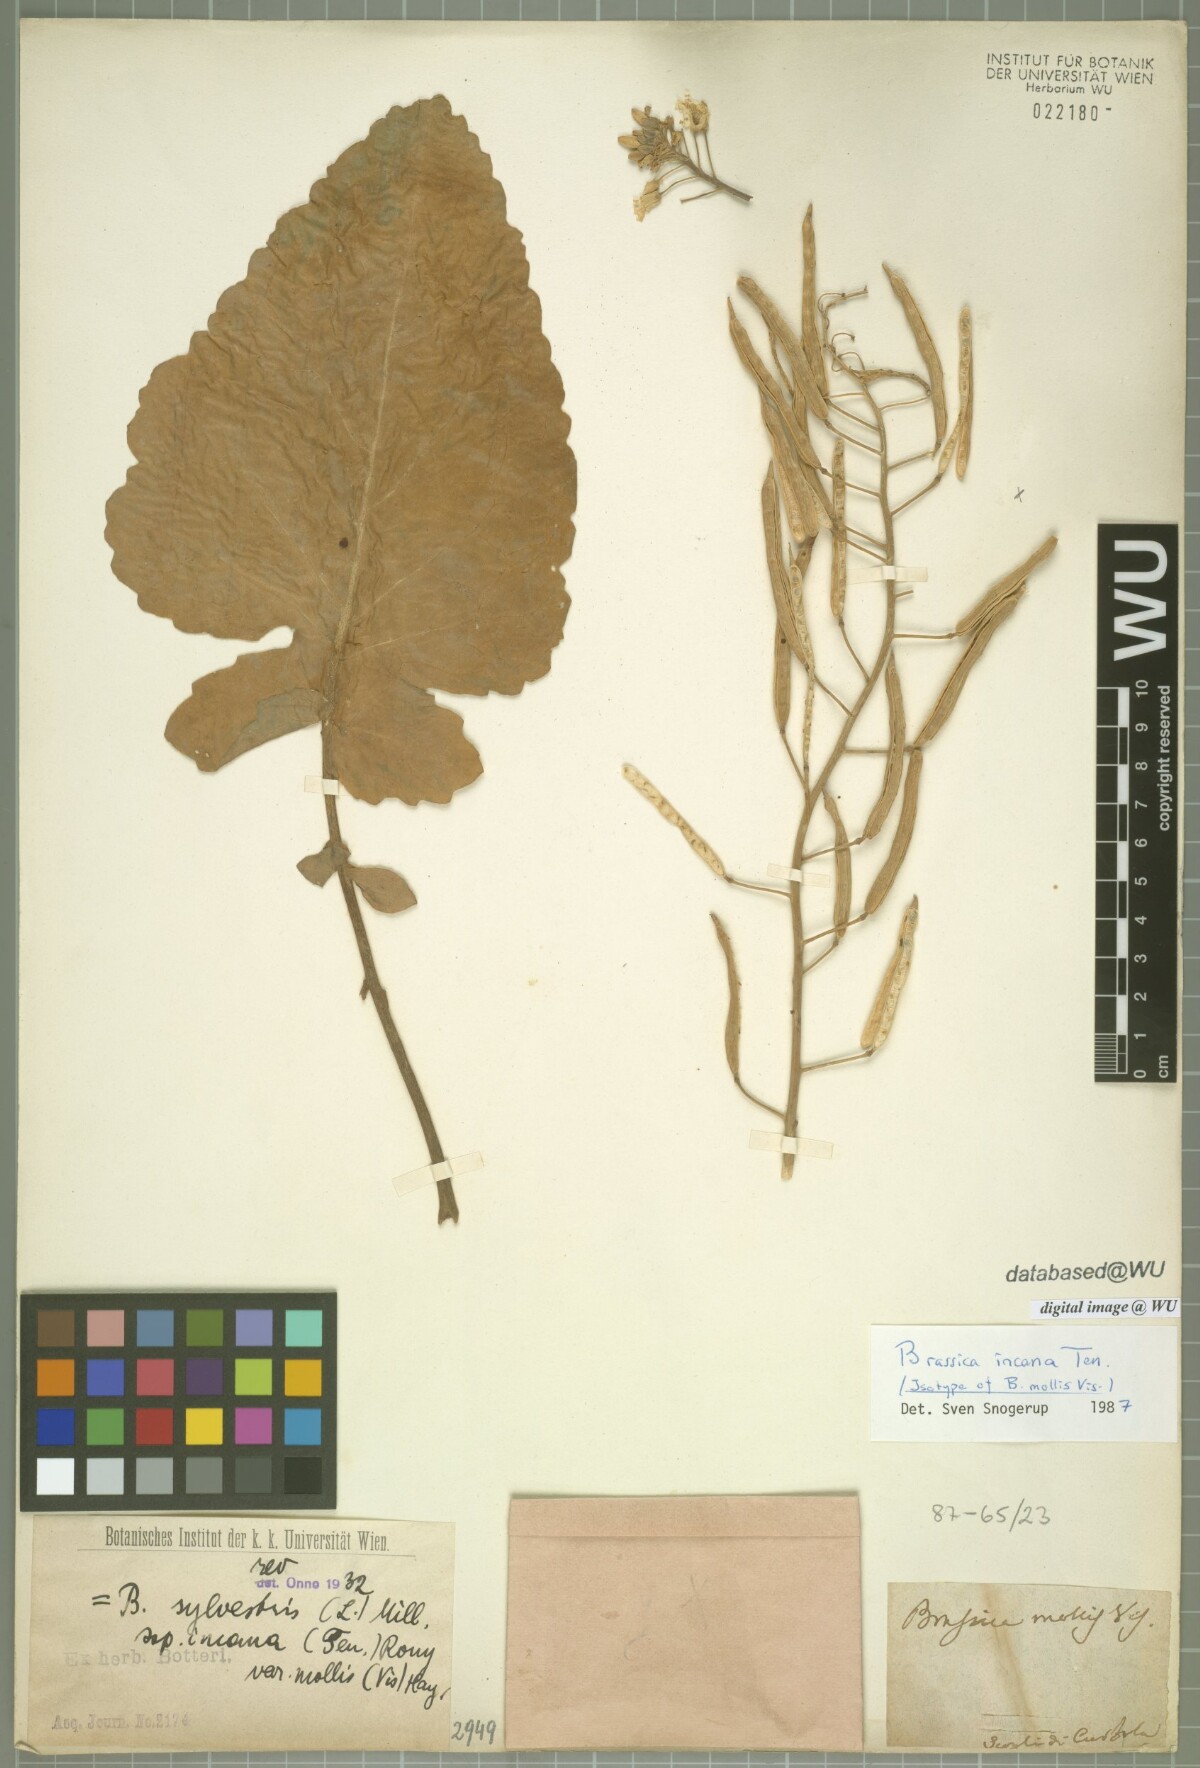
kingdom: Plantae
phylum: Tracheophyta
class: Magnoliopsida
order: Brassicales
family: Brassicaceae
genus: Brassica
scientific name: Brassica incana
